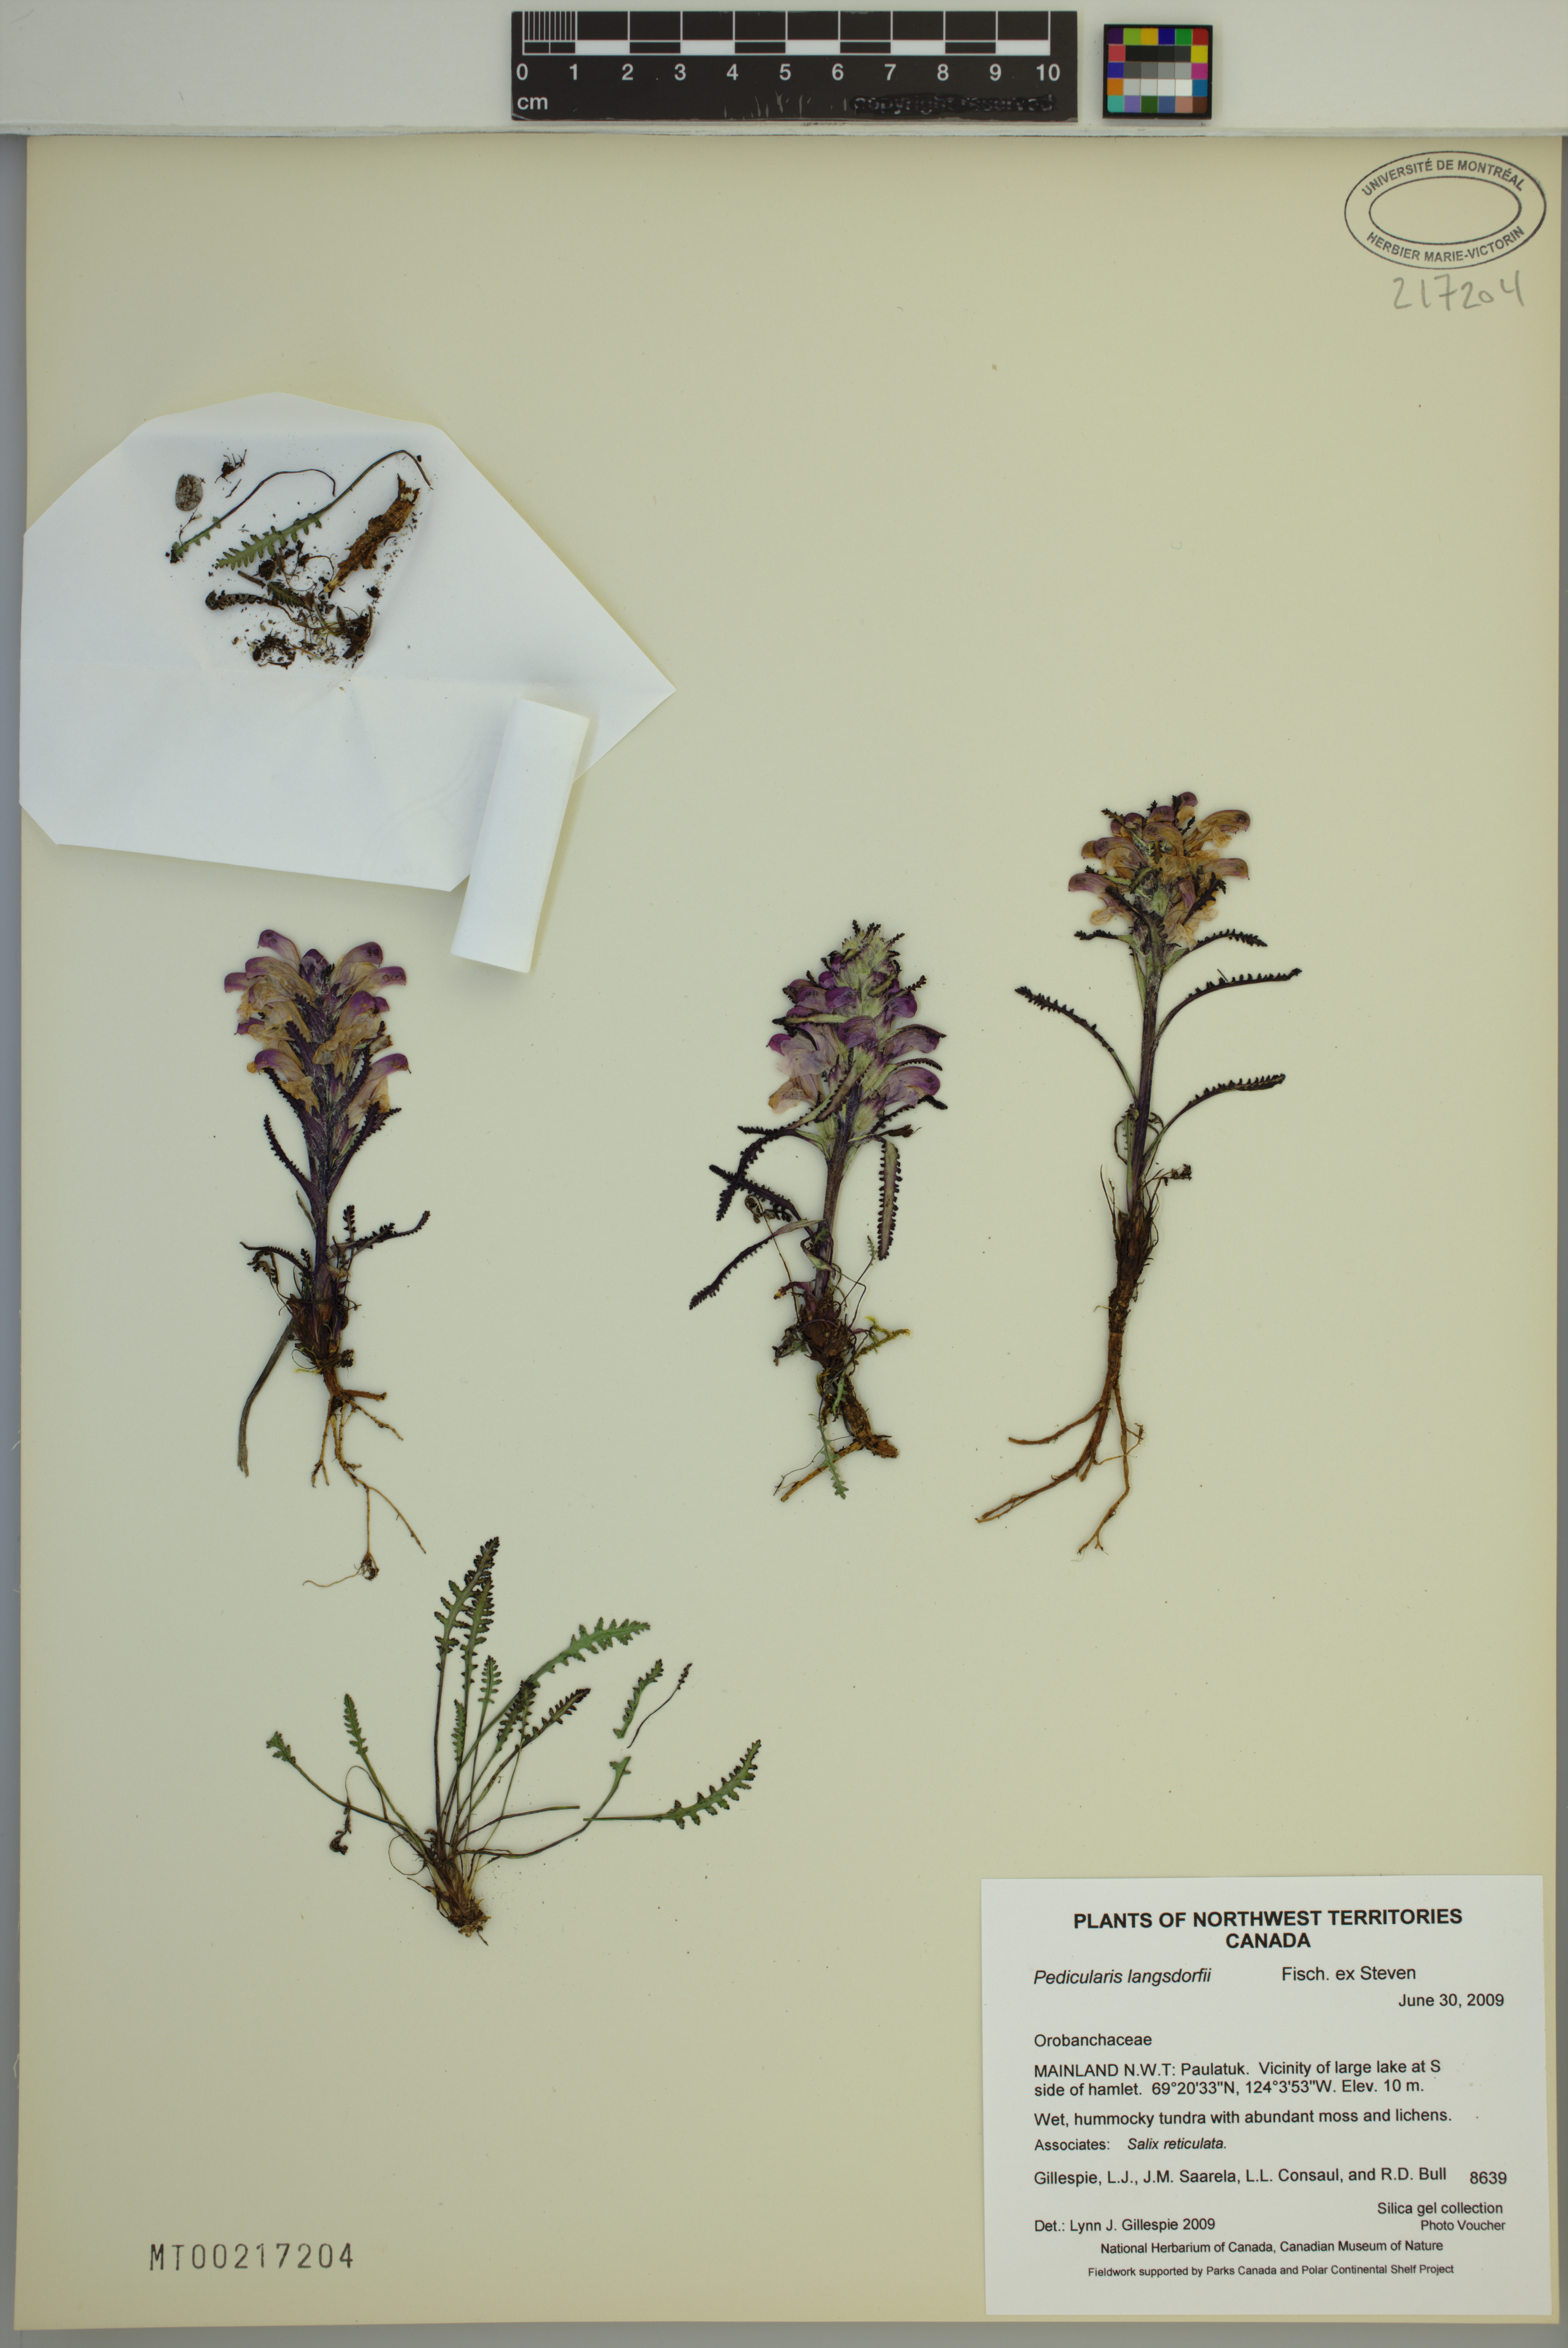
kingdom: Plantae
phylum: Tracheophyta
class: Magnoliopsida
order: Lamiales
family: Orobanchaceae
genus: Pedicularis
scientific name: Pedicularis langsdorffii
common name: Langsdorff's lousewort
